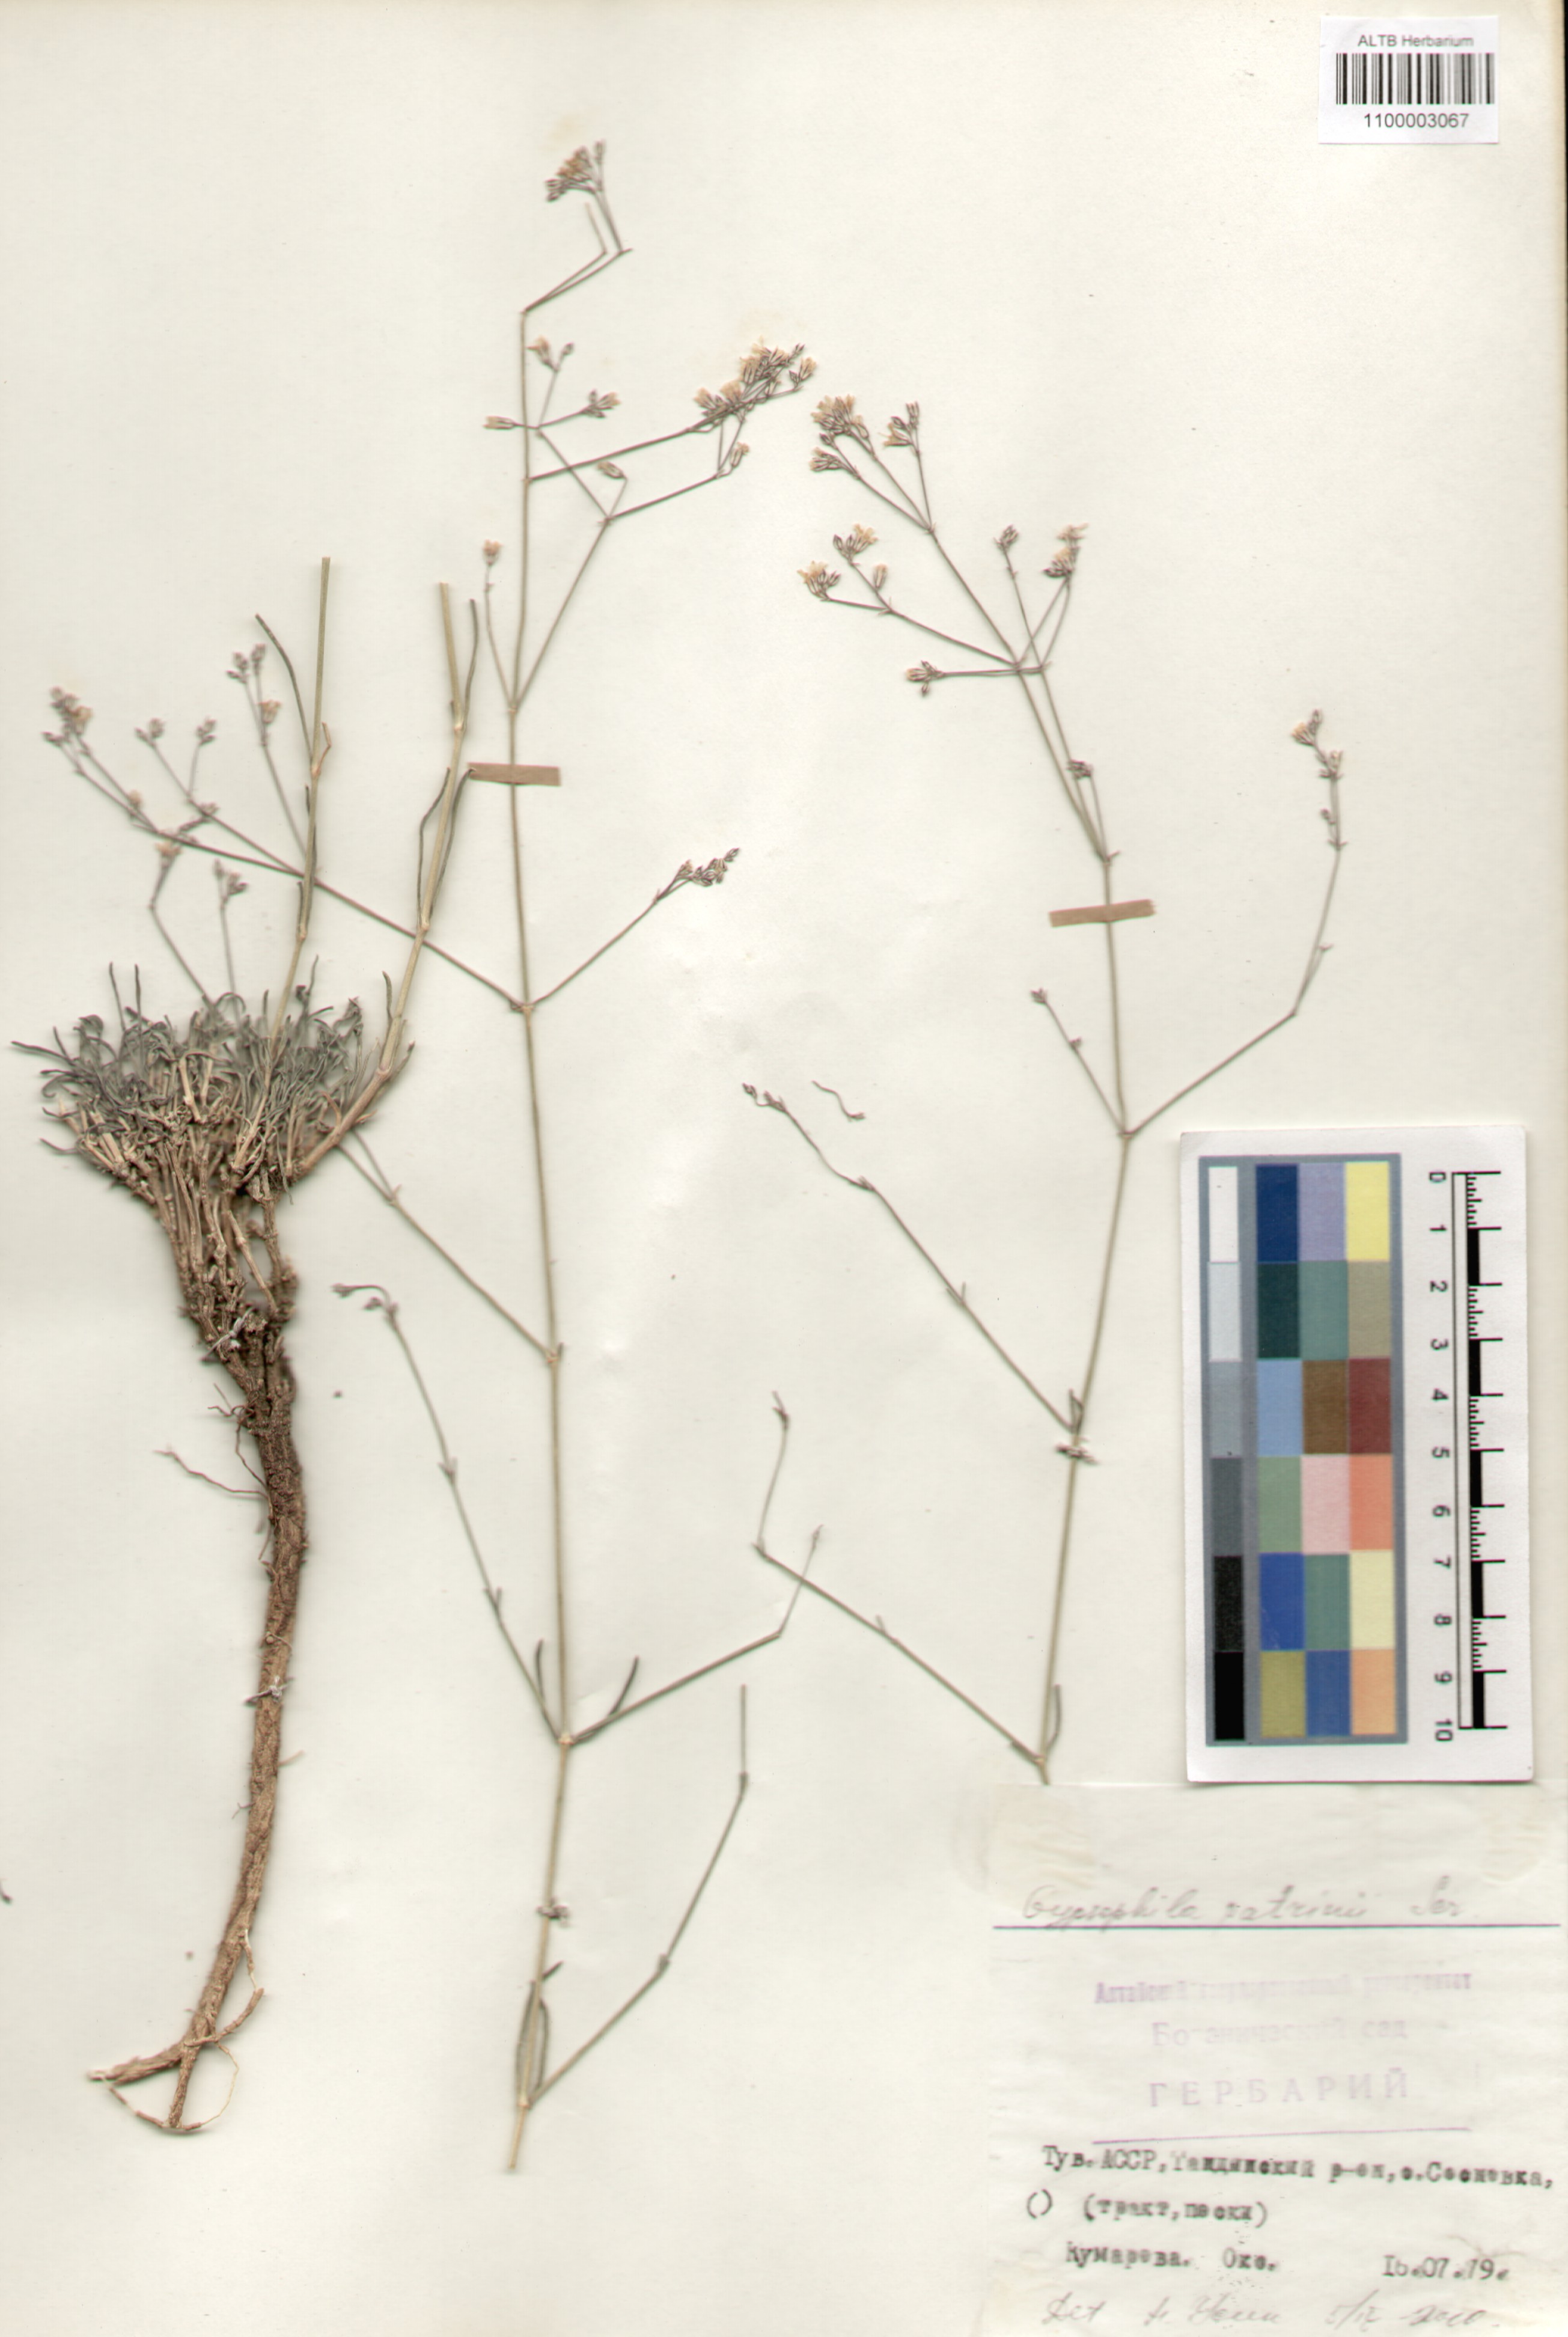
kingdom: Plantae
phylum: Tracheophyta
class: Magnoliopsida
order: Caryophyllales
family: Caryophyllaceae
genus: Gypsophila
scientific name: Gypsophila patrinii
